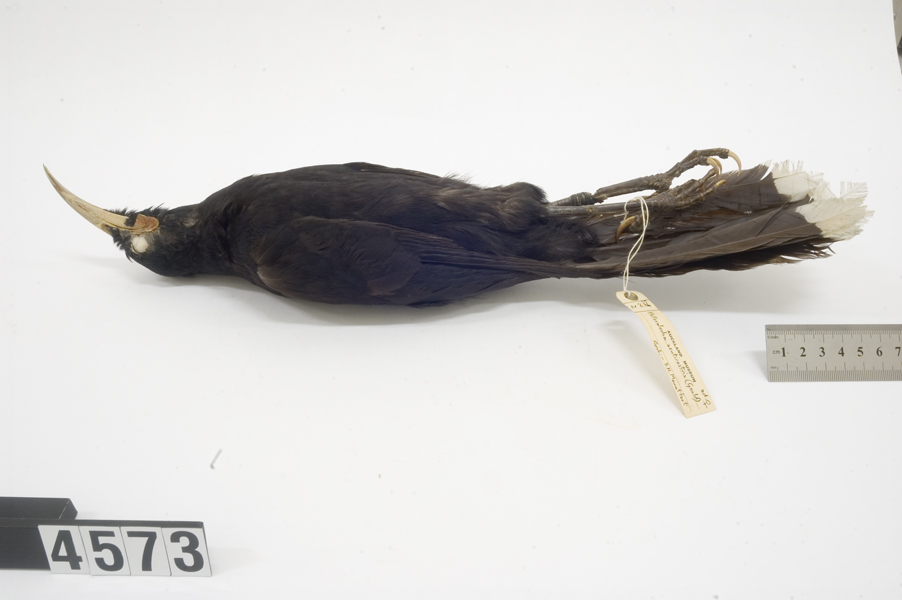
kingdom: Animalia
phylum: Chordata
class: Aves
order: Passeriformes
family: Callaeatidae
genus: Heteralocha
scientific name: Heteralocha acutirostris
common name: Huia
